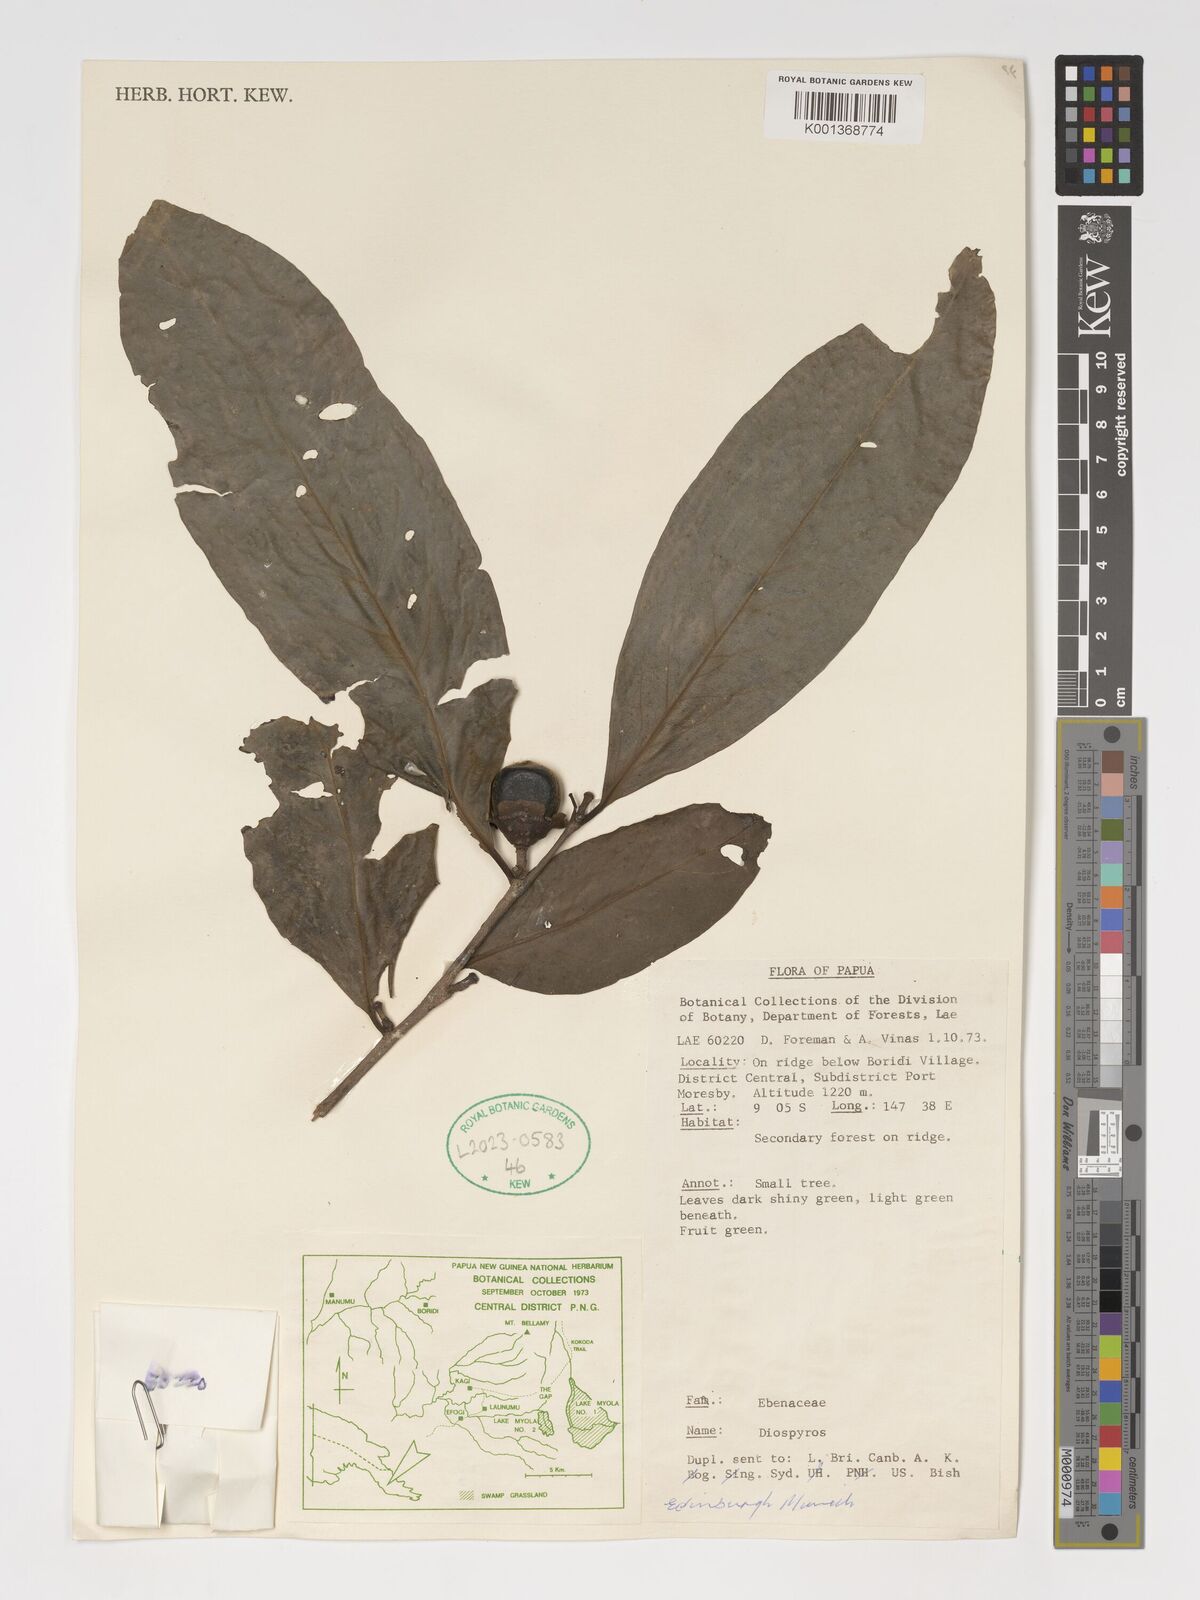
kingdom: Plantae
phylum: Tracheophyta
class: Magnoliopsida
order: Ericales
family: Ebenaceae
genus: Diospyros
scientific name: Diospyros
